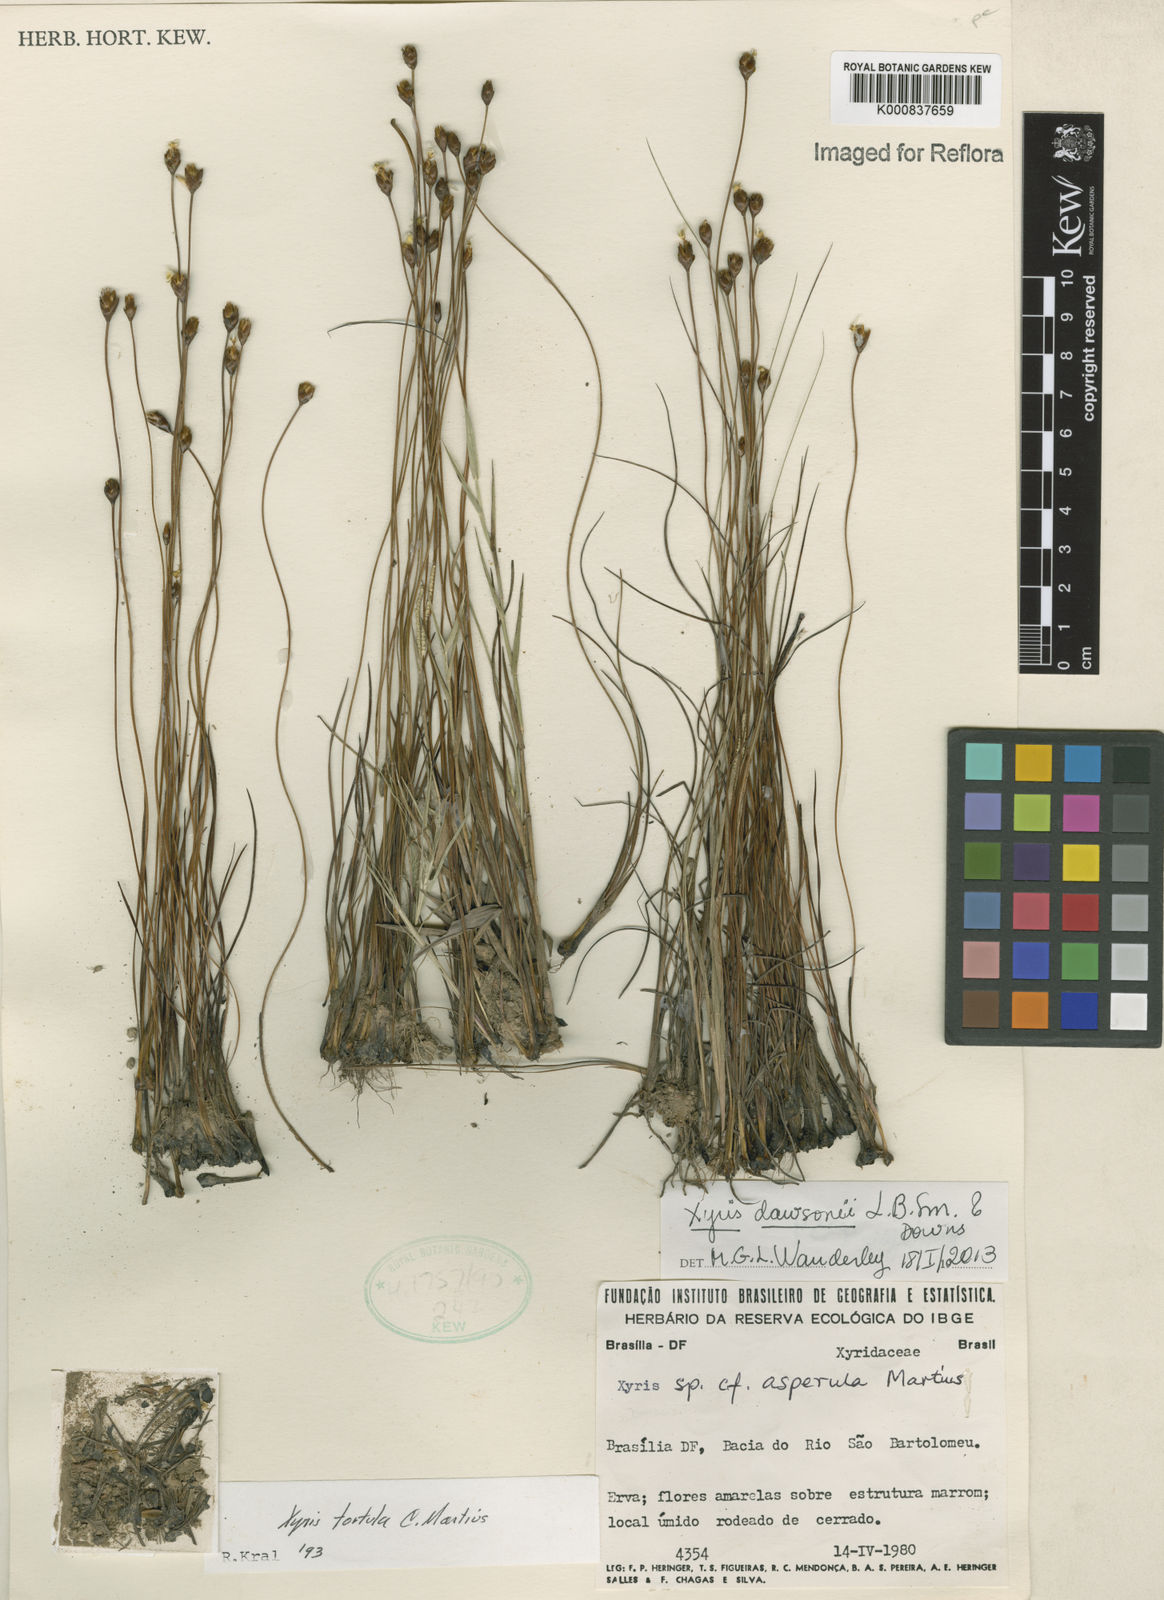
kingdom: Plantae
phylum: Tracheophyta
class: Liliopsida
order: Poales
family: Xyridaceae
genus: Xyris
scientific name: Xyris dawsonii
